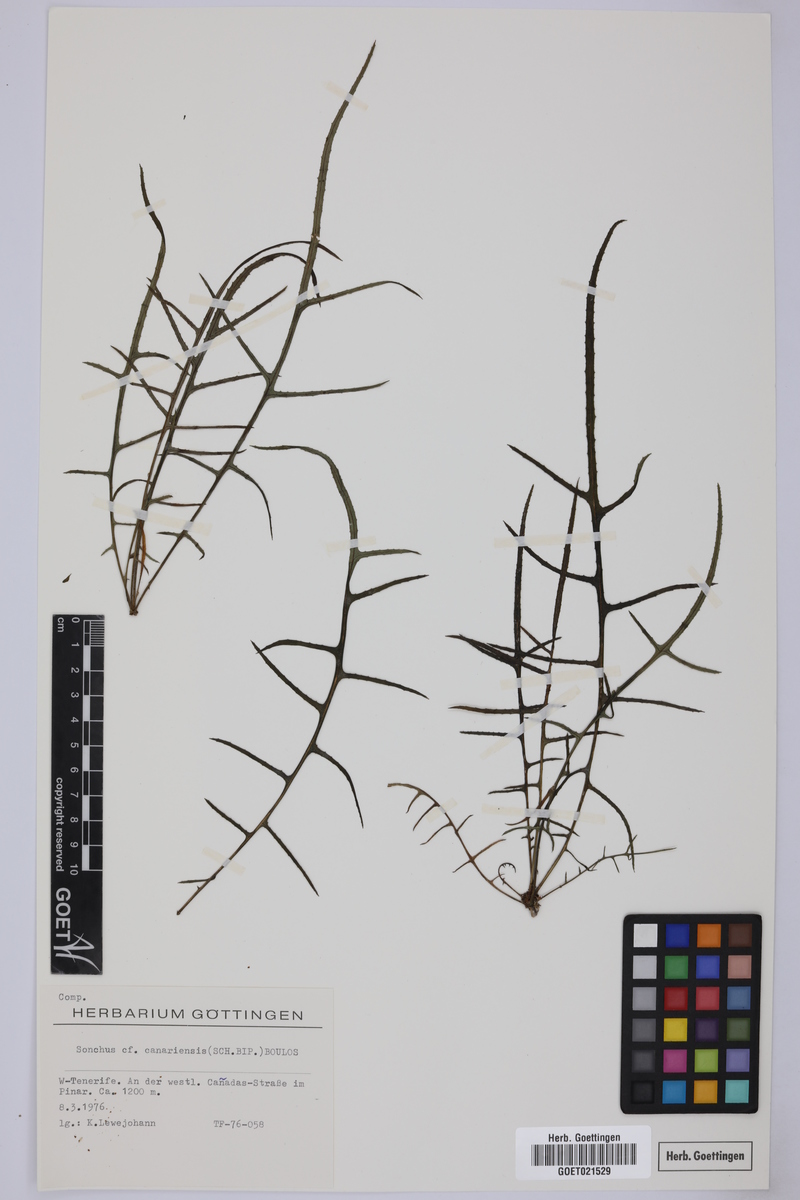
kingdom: Plantae
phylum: Tracheophyta
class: Magnoliopsida
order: Asterales
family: Asteraceae
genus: Sonchus
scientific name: Sonchus canariensis
